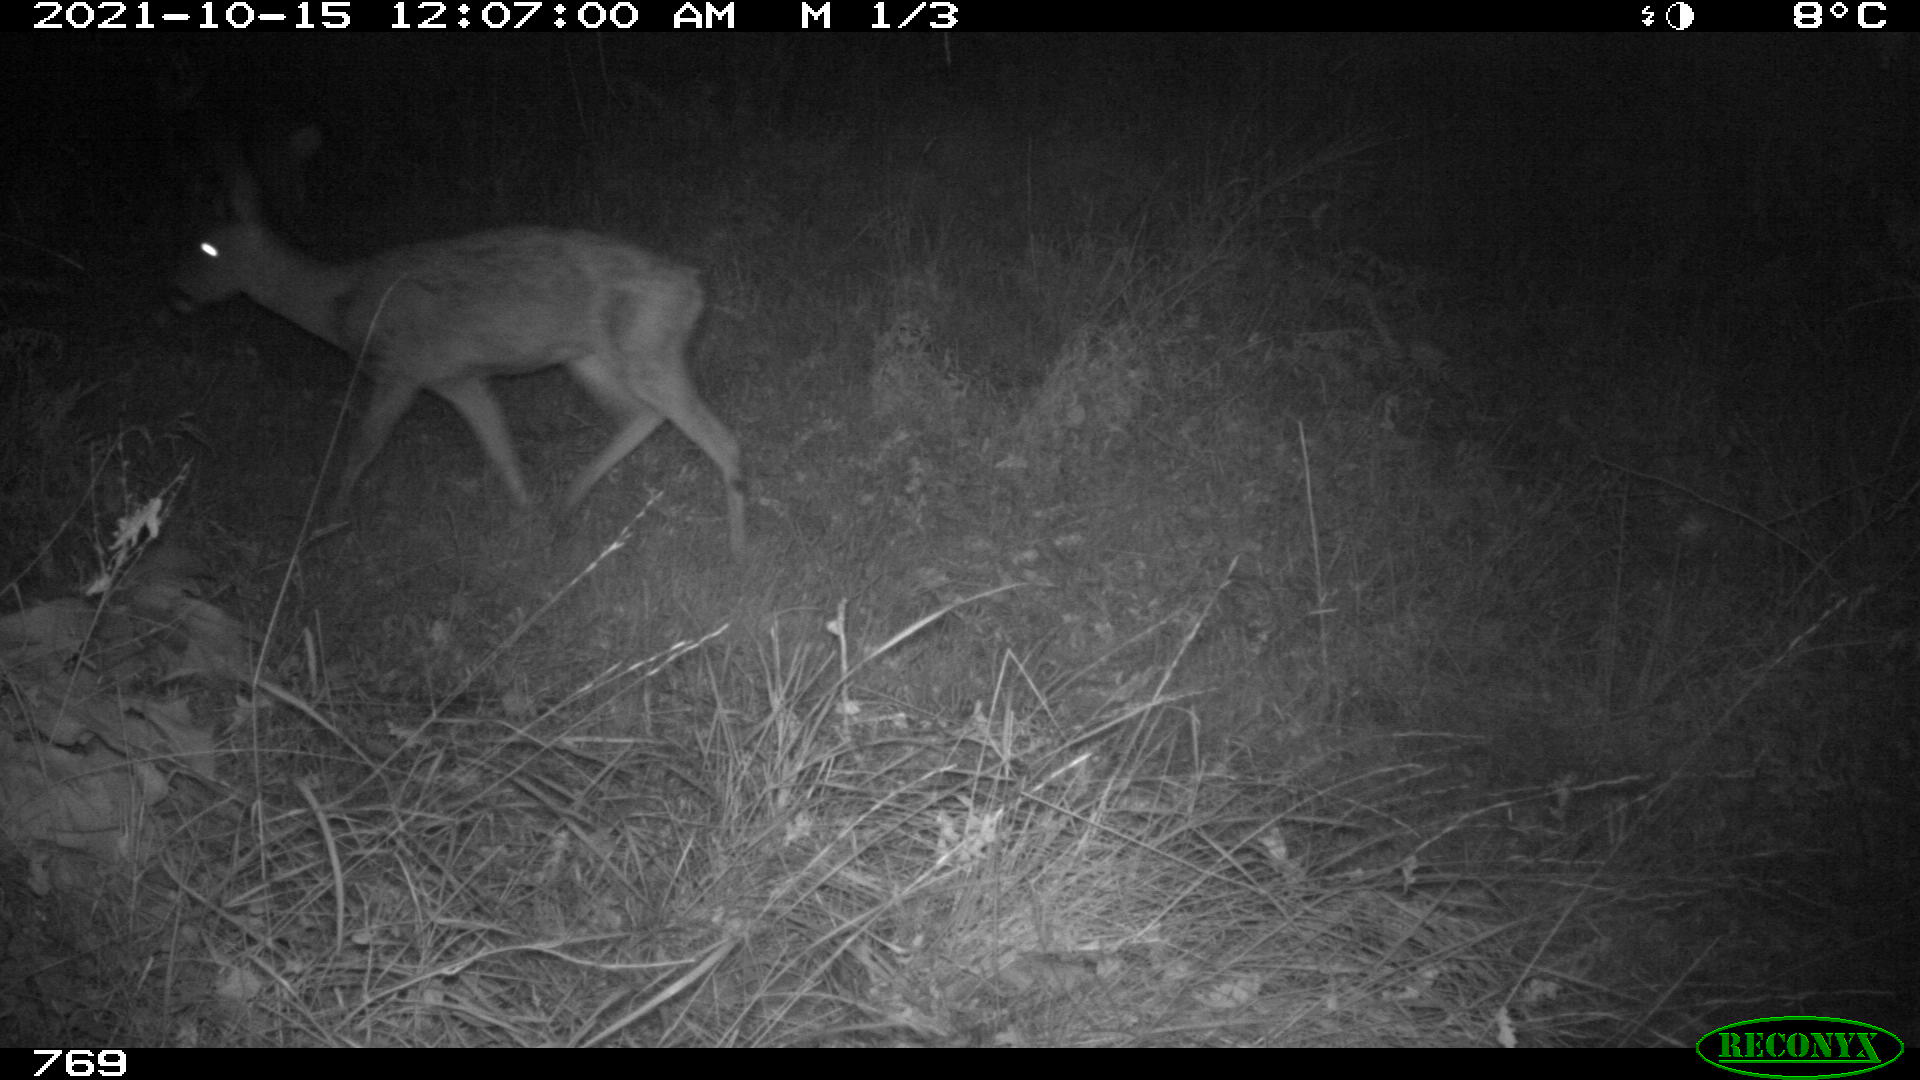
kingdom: Animalia
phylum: Chordata
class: Mammalia
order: Artiodactyla
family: Cervidae
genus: Capreolus
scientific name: Capreolus capreolus
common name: Western roe deer
